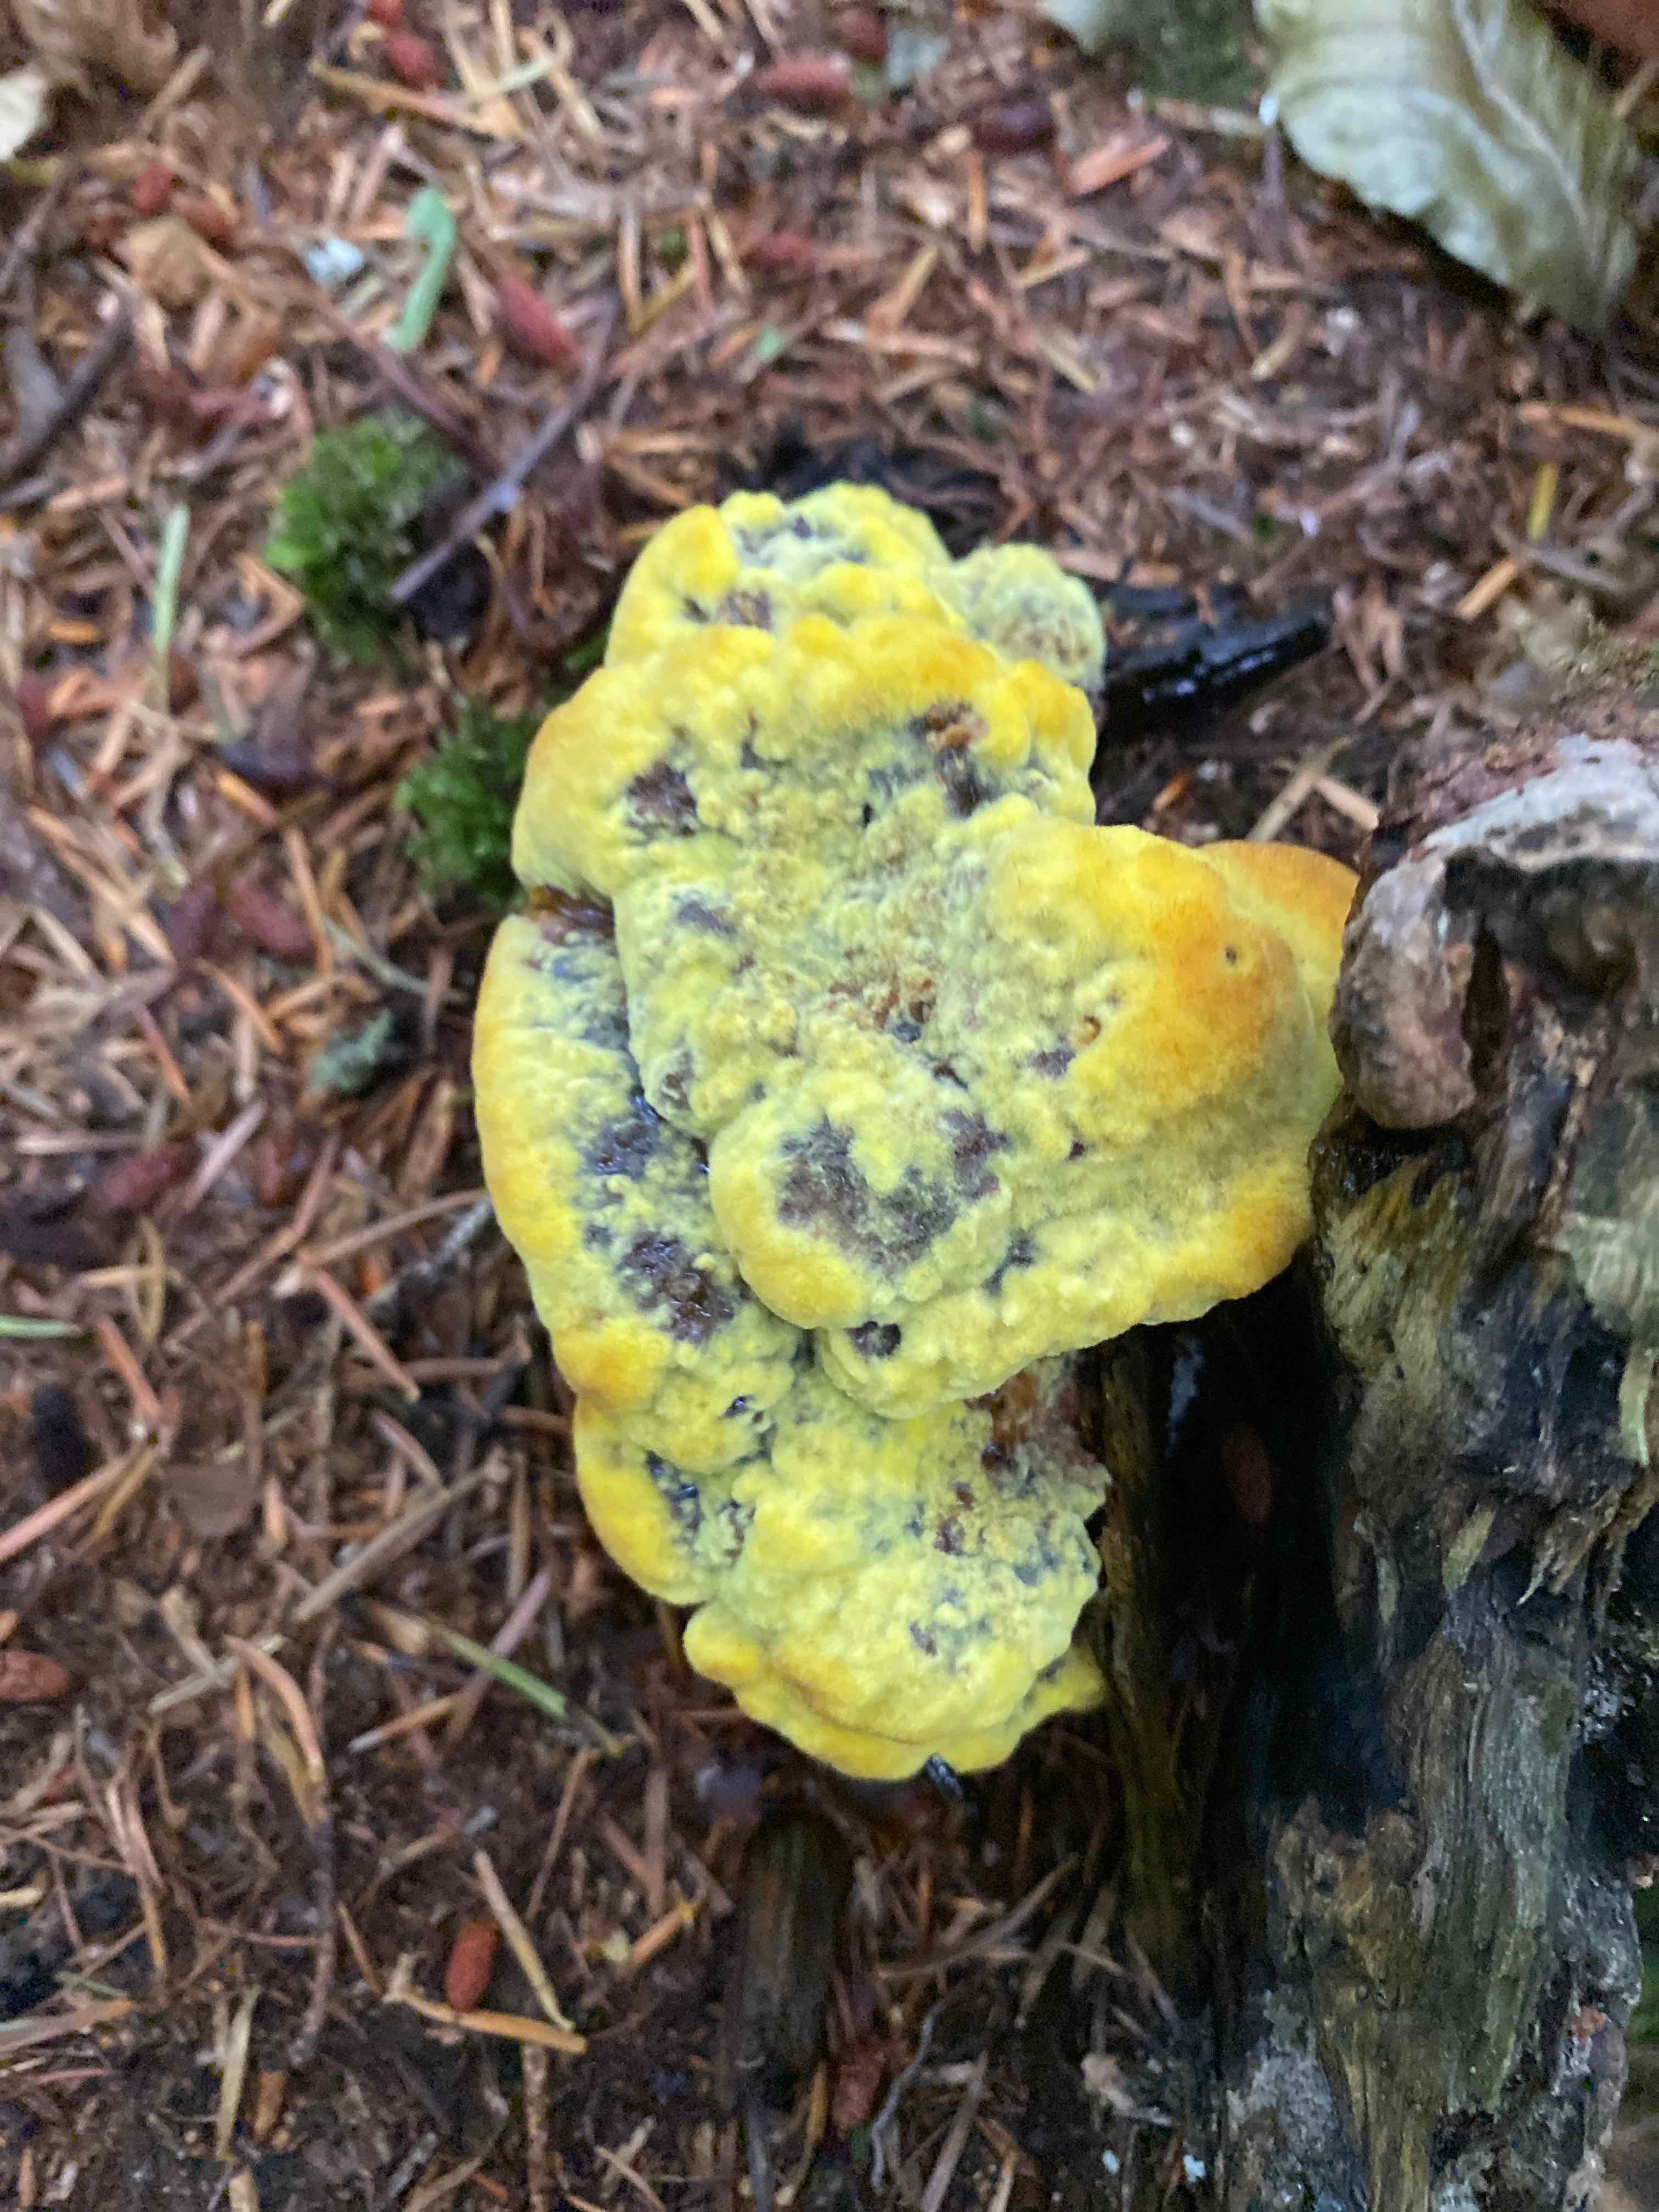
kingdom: Fungi
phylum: Basidiomycota
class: Agaricomycetes
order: Polyporales
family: Laetiporaceae
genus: Phaeolus
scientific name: Phaeolus schweinitzii
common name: brunporesvamp
